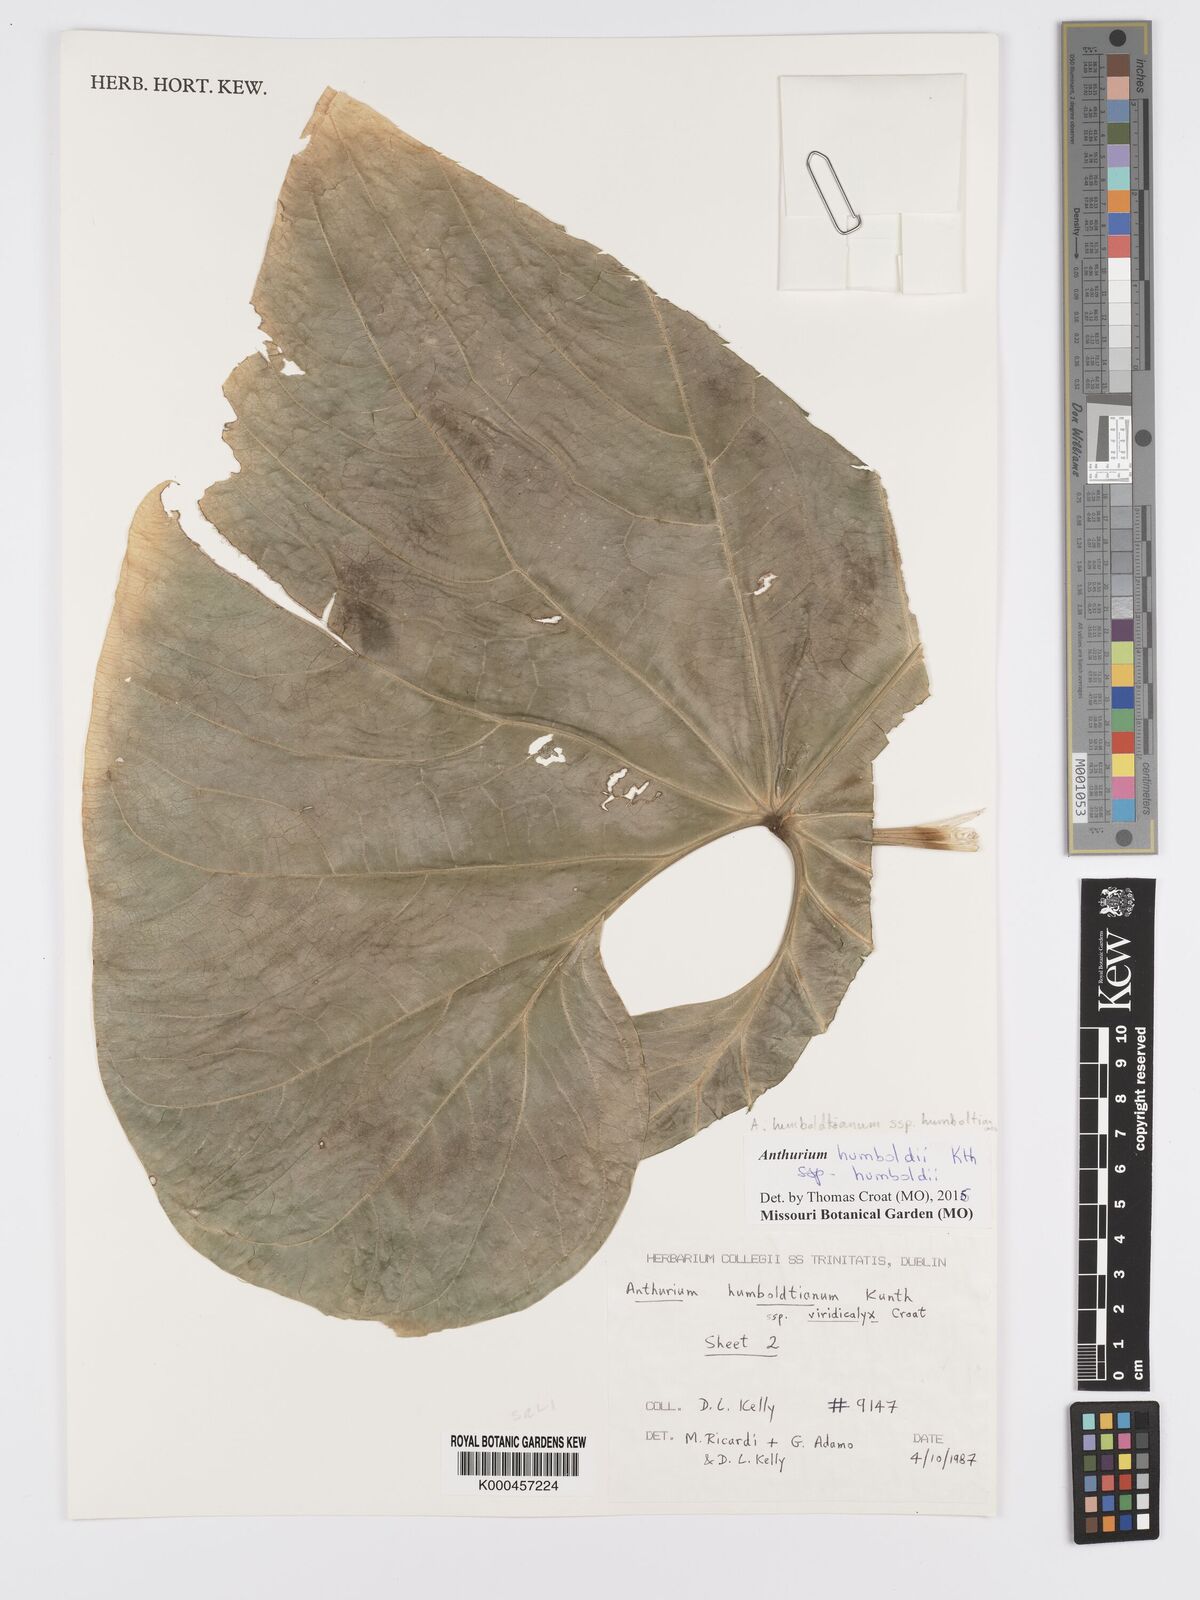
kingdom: Plantae
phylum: Tracheophyta
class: Liliopsida
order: Alismatales
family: Araceae
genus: Anthurium
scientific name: Anthurium martae
